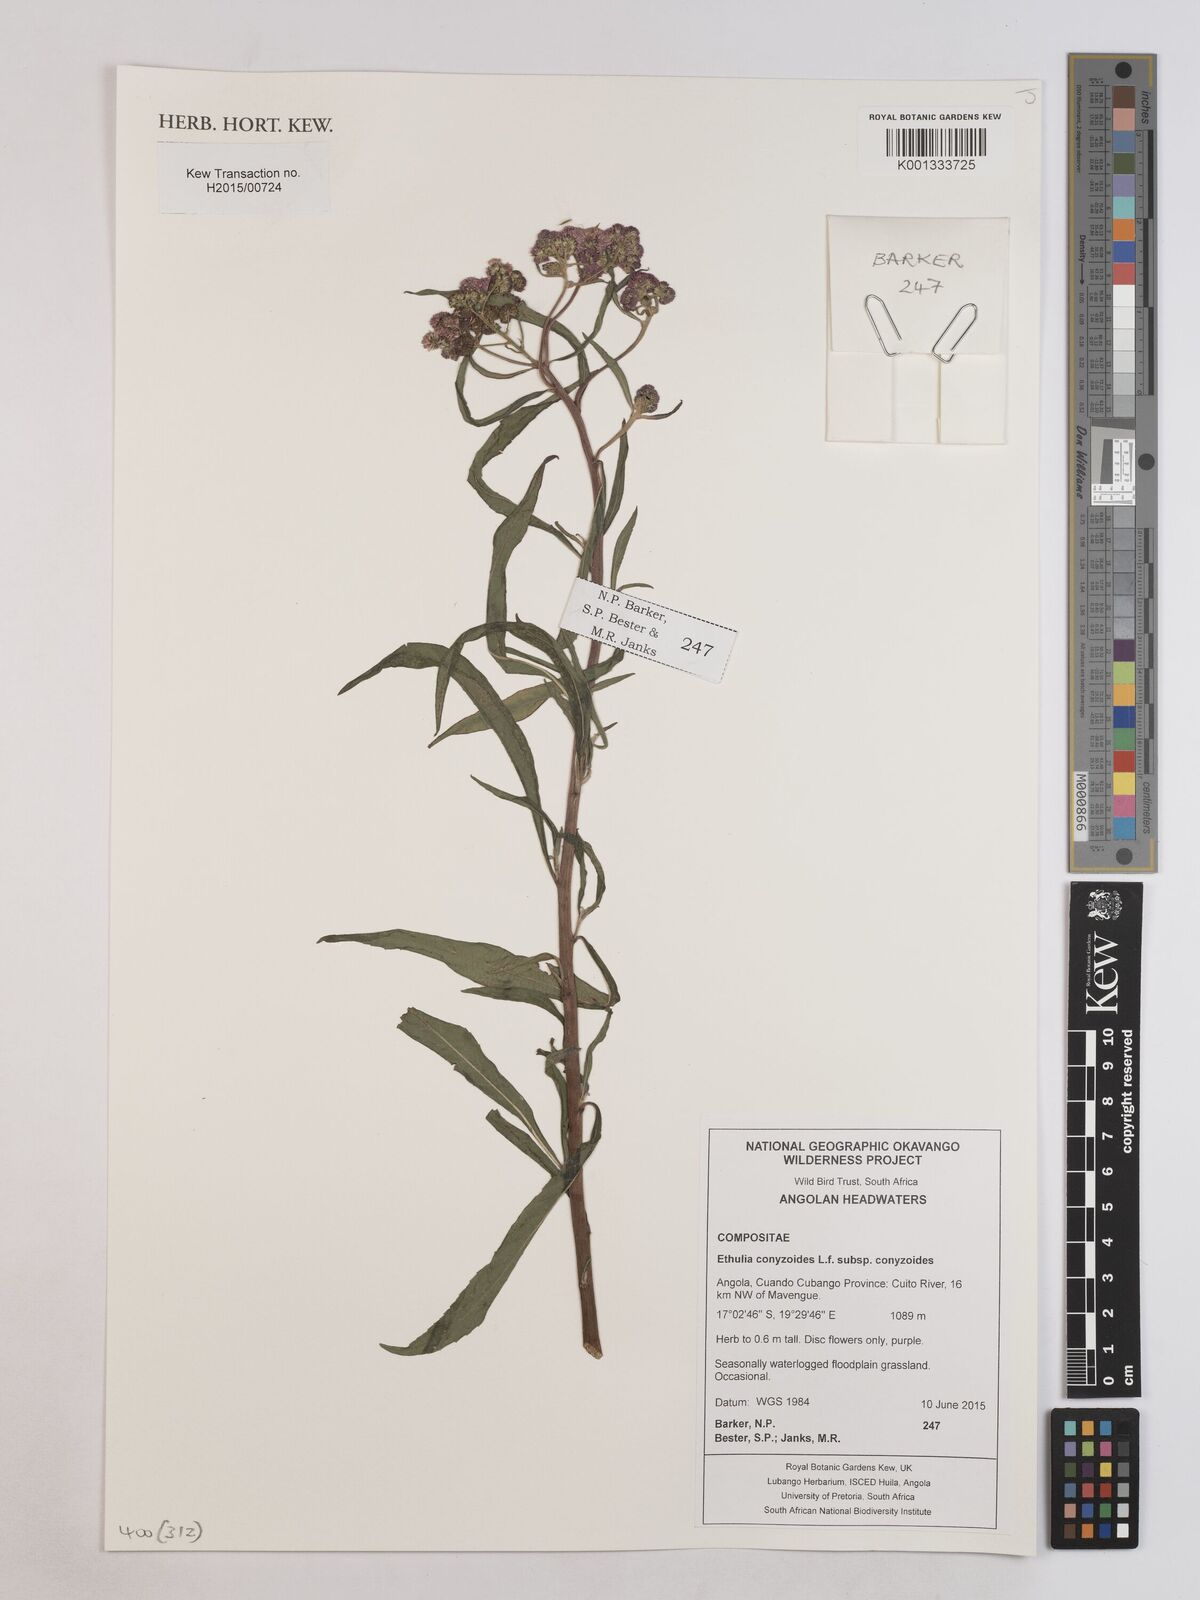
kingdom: Plantae
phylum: Tracheophyta
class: Magnoliopsida
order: Asterales
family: Asteraceae
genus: Ethulia
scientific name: Ethulia conyzoides
